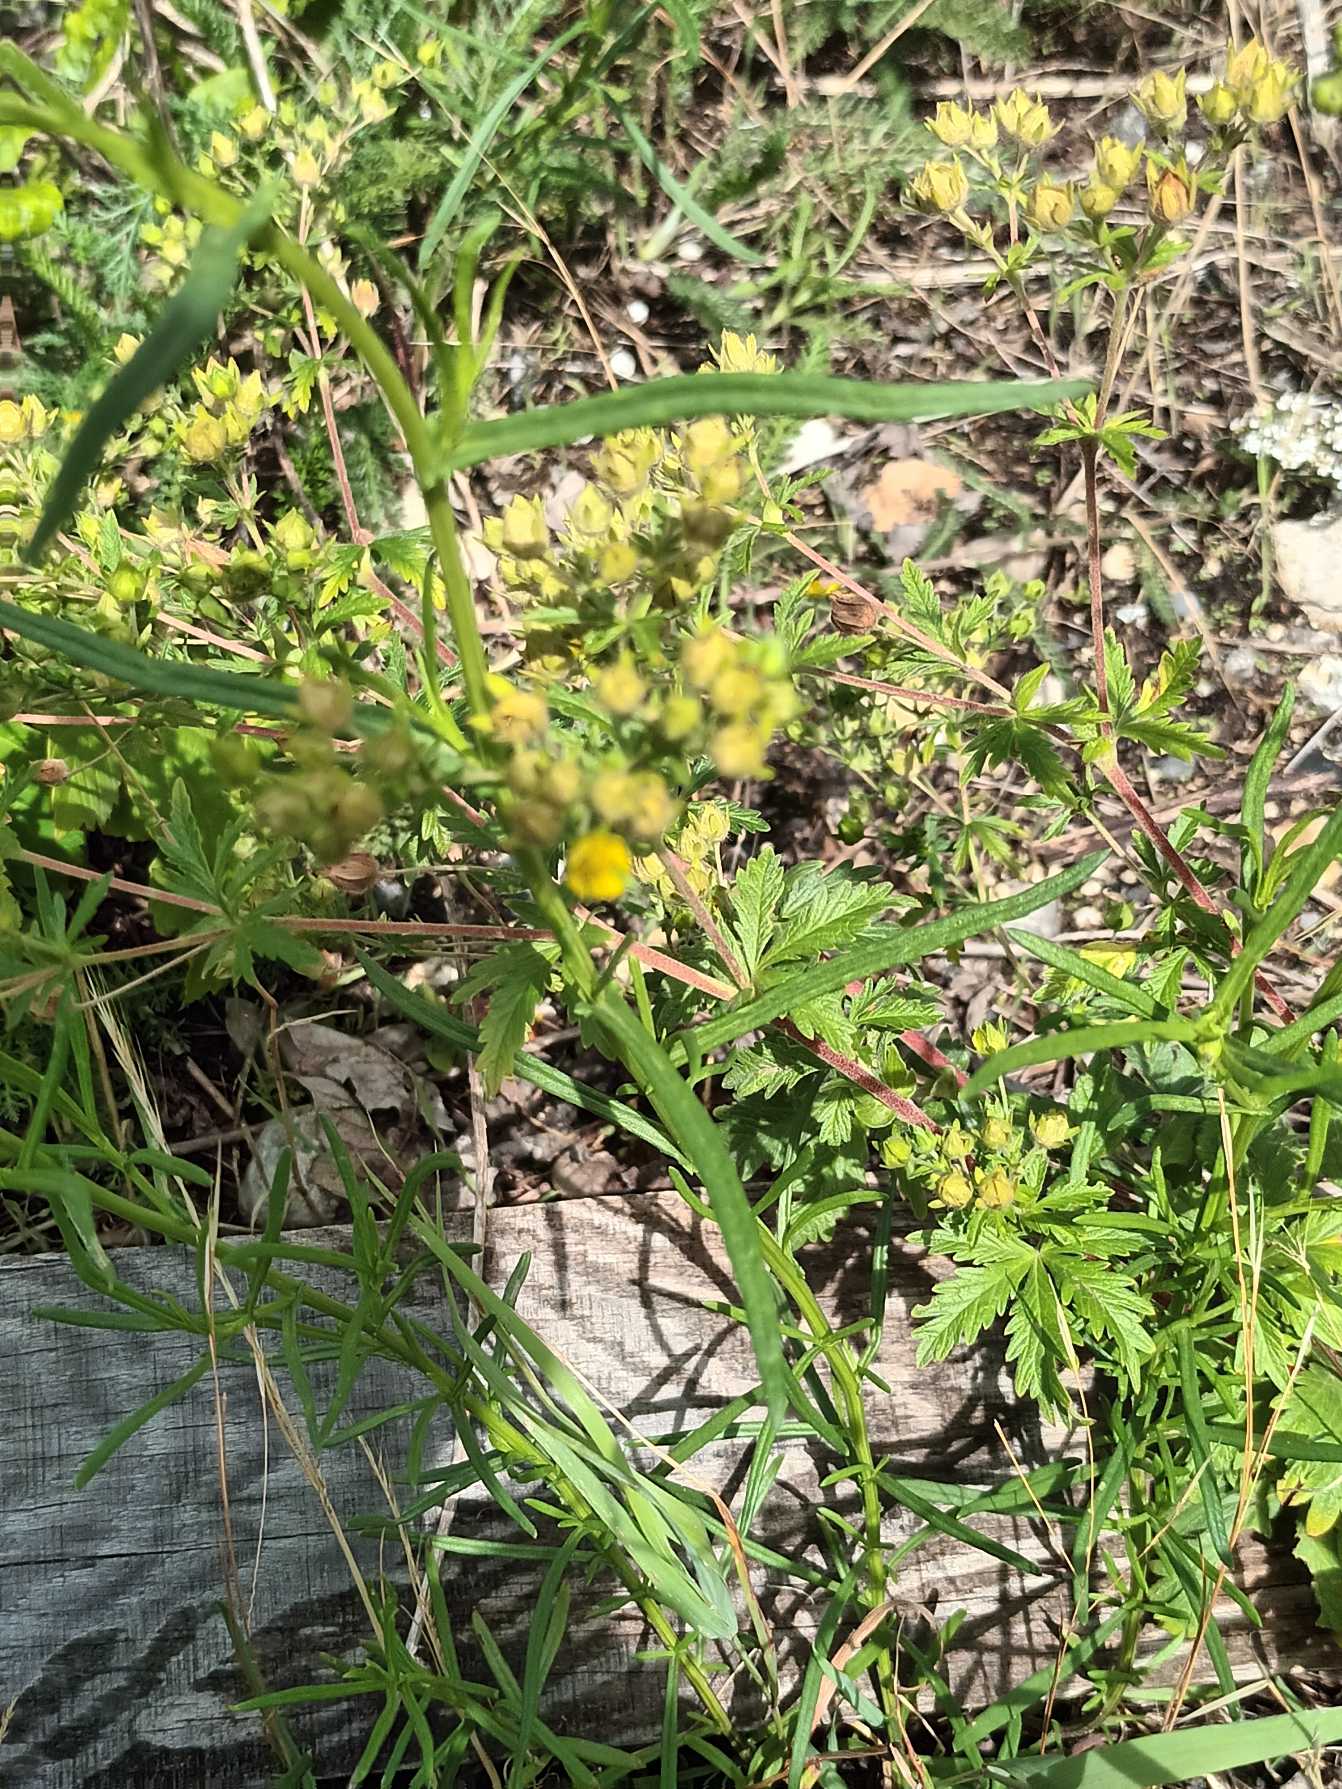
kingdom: Plantae
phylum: Tracheophyta
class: Magnoliopsida
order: Rosales
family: Rosaceae
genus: Potentilla
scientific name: Potentilla intermedia
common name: Småblomstret potentil
